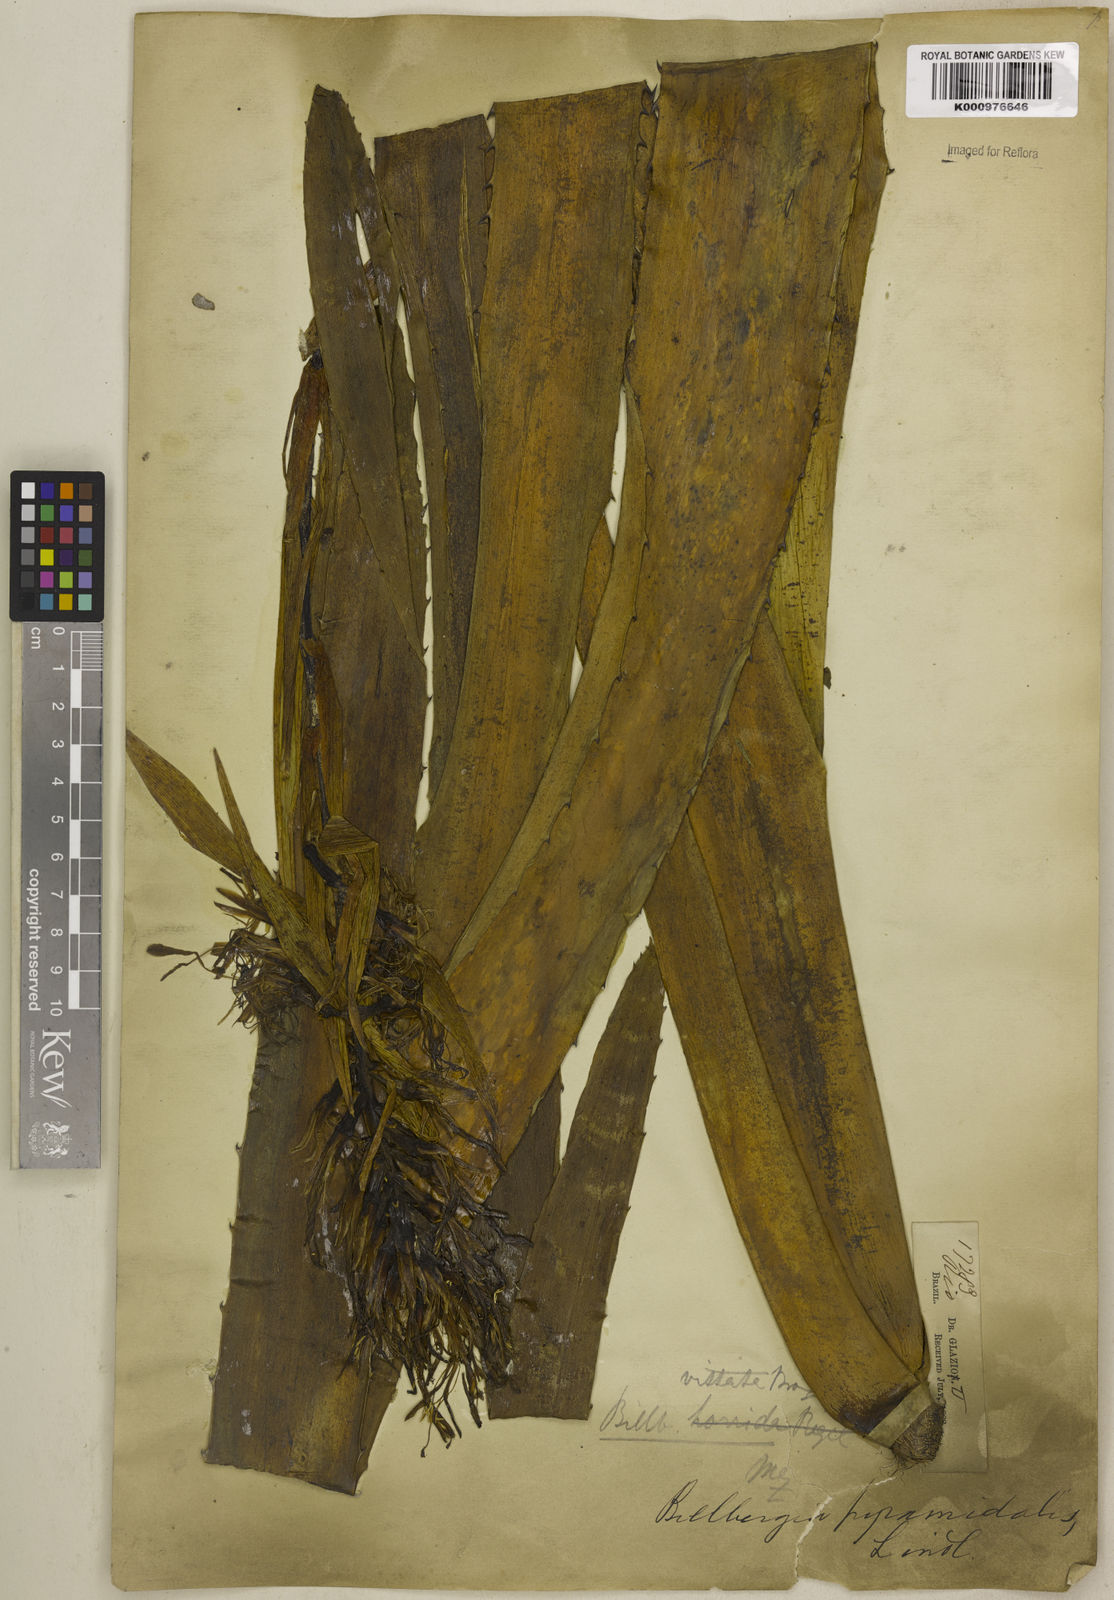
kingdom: Plantae
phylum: Tracheophyta
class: Liliopsida
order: Poales
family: Bromeliaceae
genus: Billbergia
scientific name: Billbergia vittata
